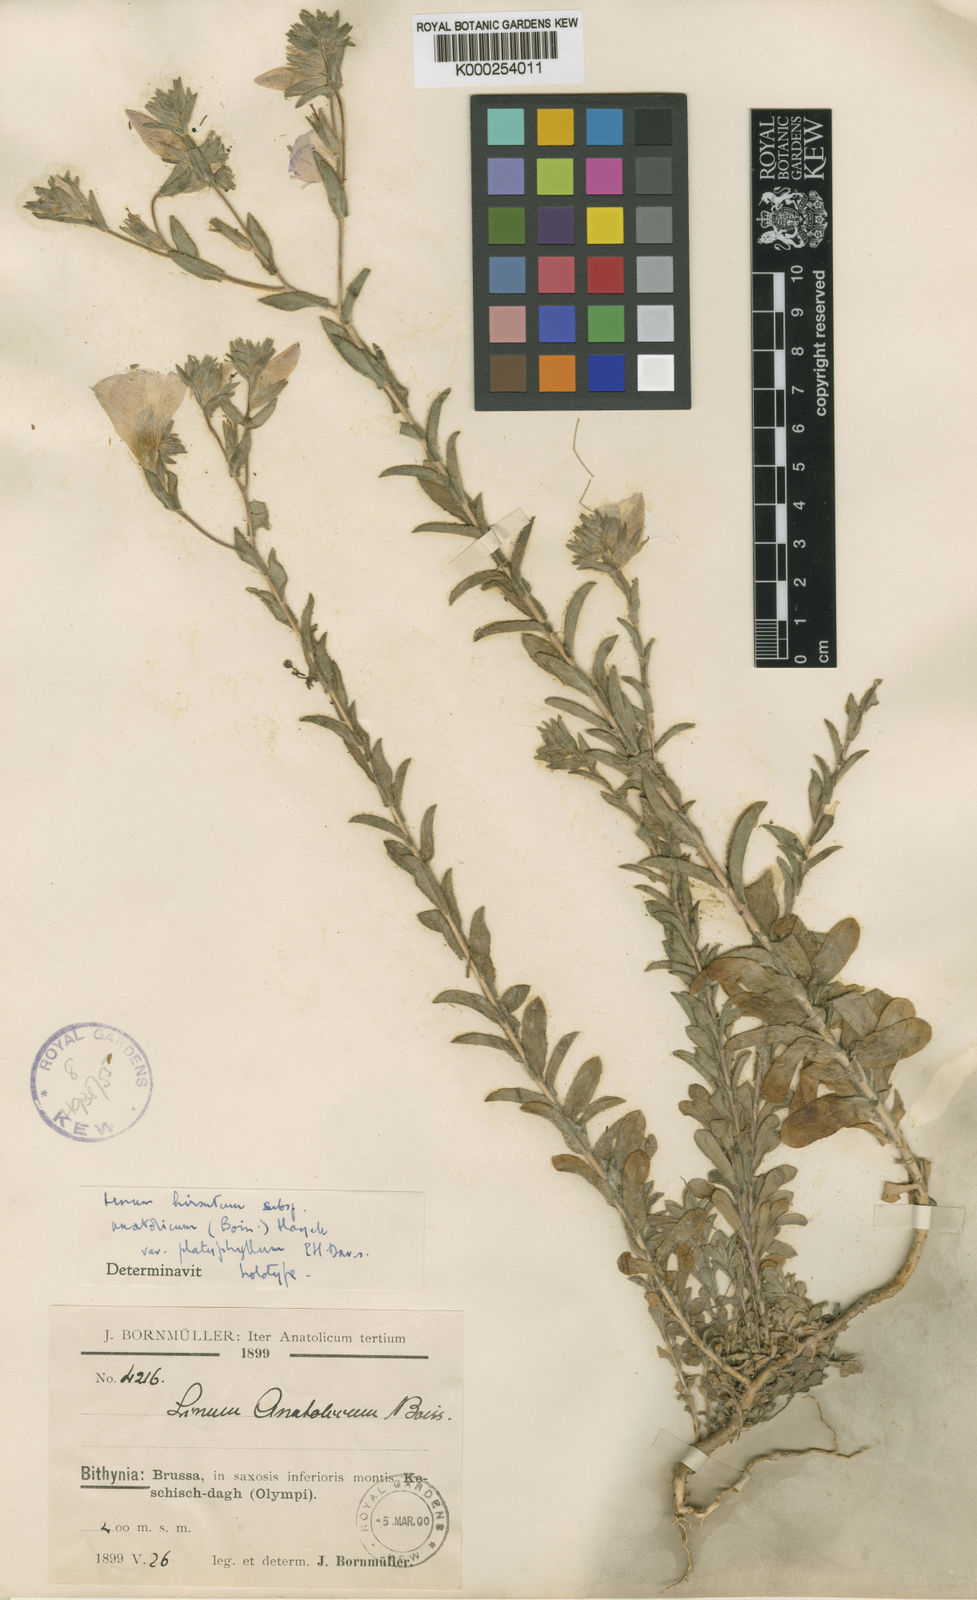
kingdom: Plantae
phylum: Tracheophyta
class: Magnoliopsida
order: Malpighiales
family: Linaceae
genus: Linum
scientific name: Linum hirsutum
